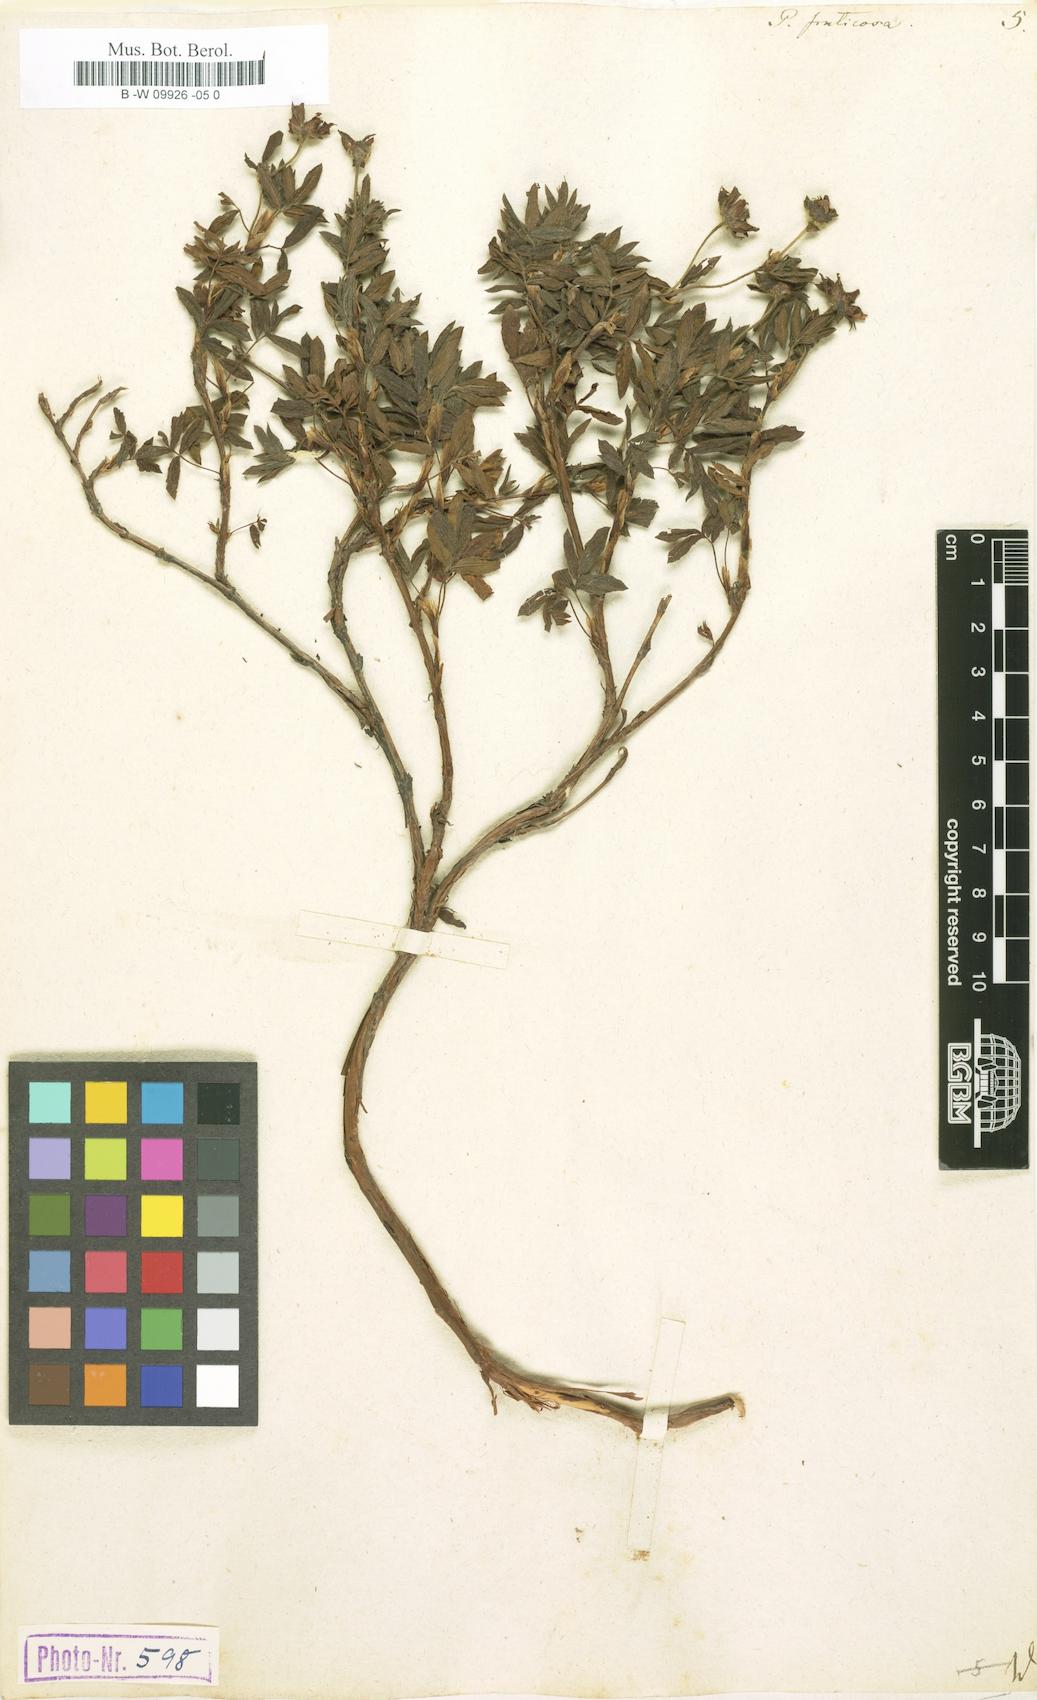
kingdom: Plantae
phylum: Tracheophyta
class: Magnoliopsida
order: Rosales
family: Rosaceae
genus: Dasiphora
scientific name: Dasiphora fruticosa
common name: Shrubby cinquefoil
